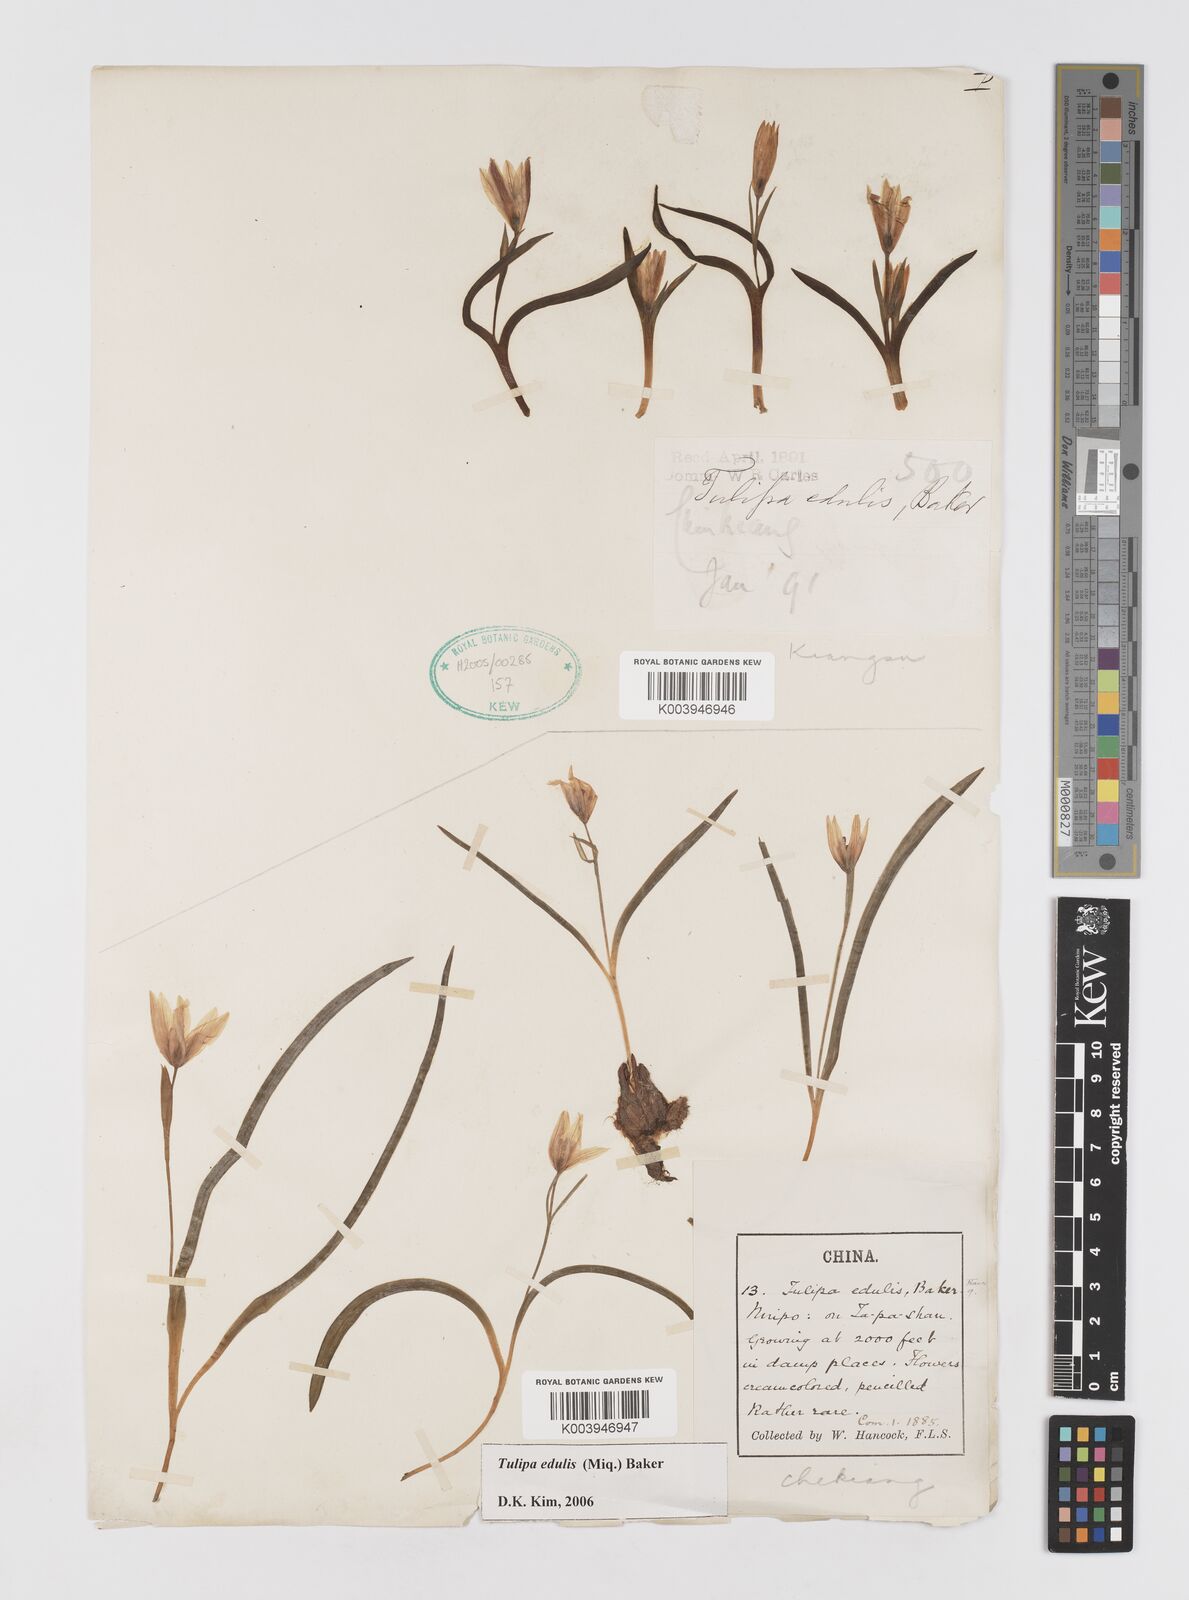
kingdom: Plantae
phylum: Tracheophyta
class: Liliopsida
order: Liliales
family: Liliaceae
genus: Amana
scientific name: Amana edulis
